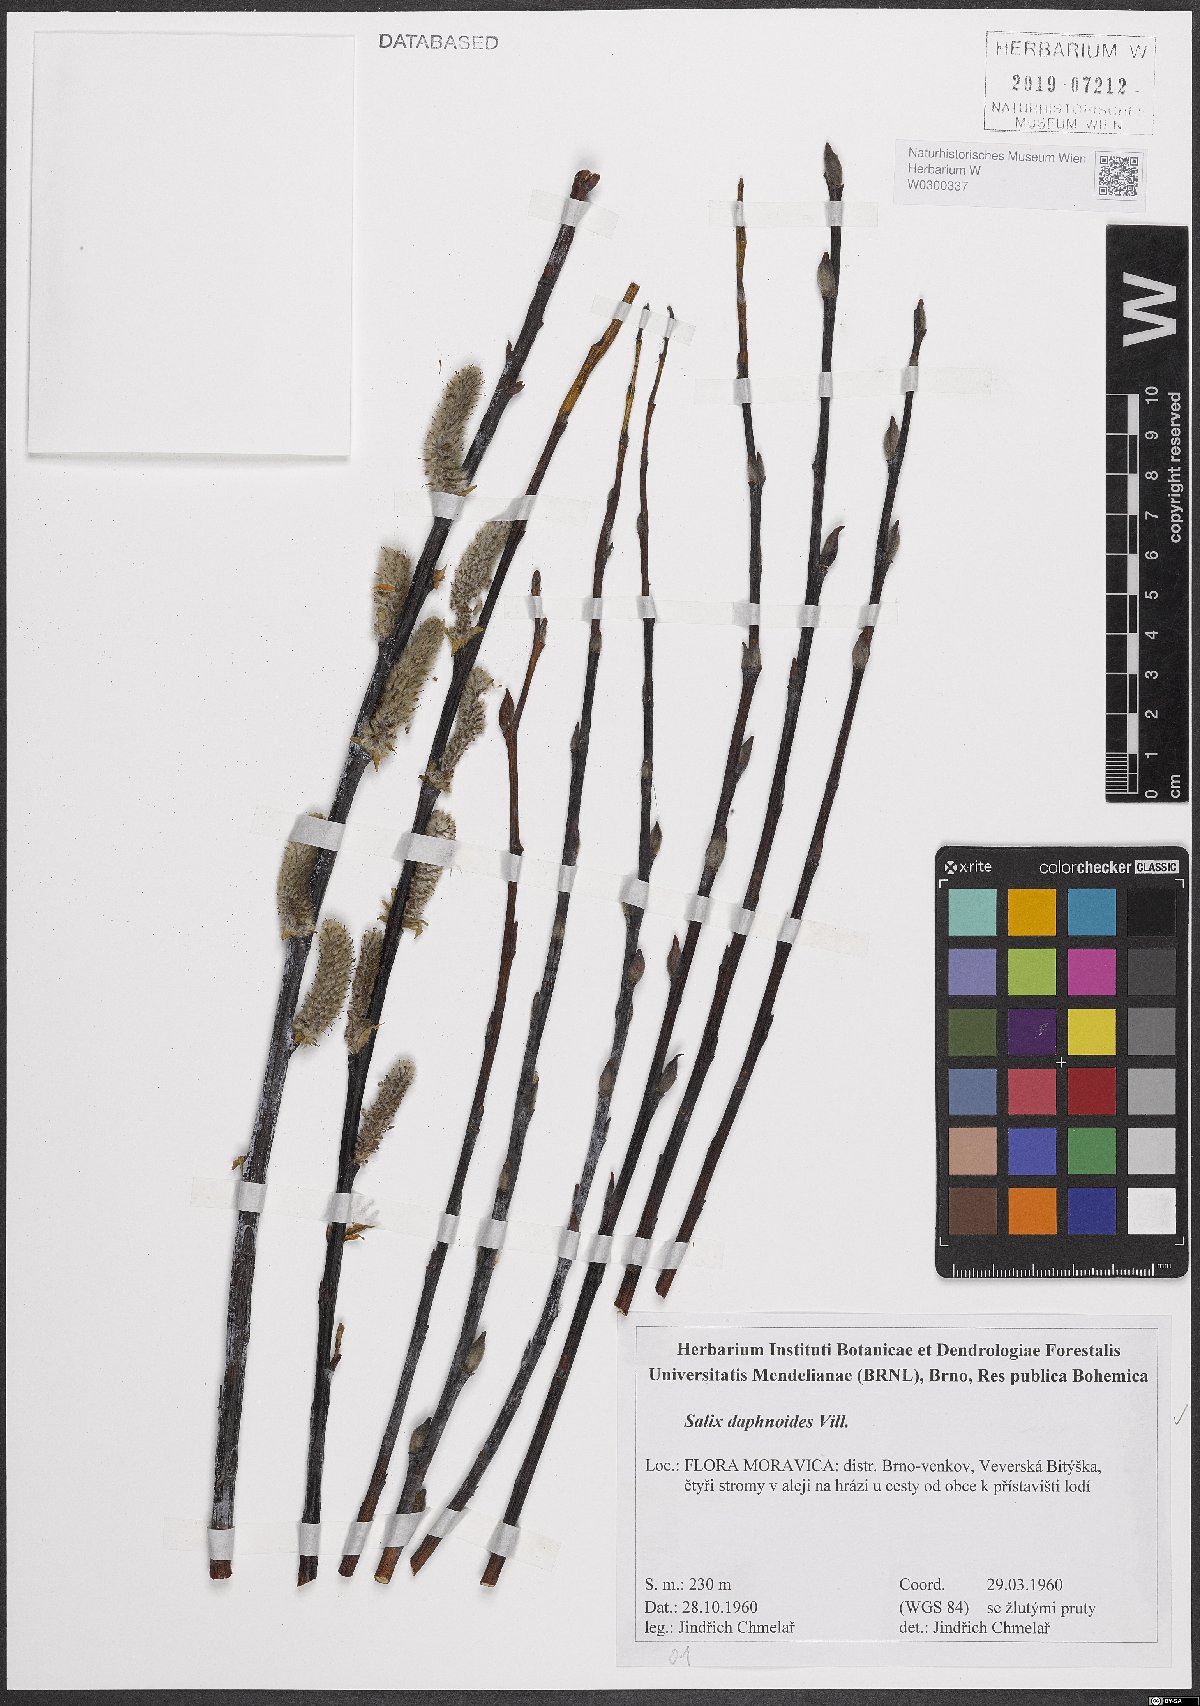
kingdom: Plantae
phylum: Tracheophyta
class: Magnoliopsida
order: Malpighiales
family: Salicaceae
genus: Salix
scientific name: Salix daphnoides
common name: European violet-willow
